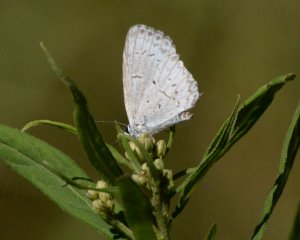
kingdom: Animalia
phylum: Arthropoda
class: Insecta
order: Lepidoptera
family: Lycaenidae
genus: Celastrina
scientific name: Celastrina lucia
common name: Northern Spring Azure
